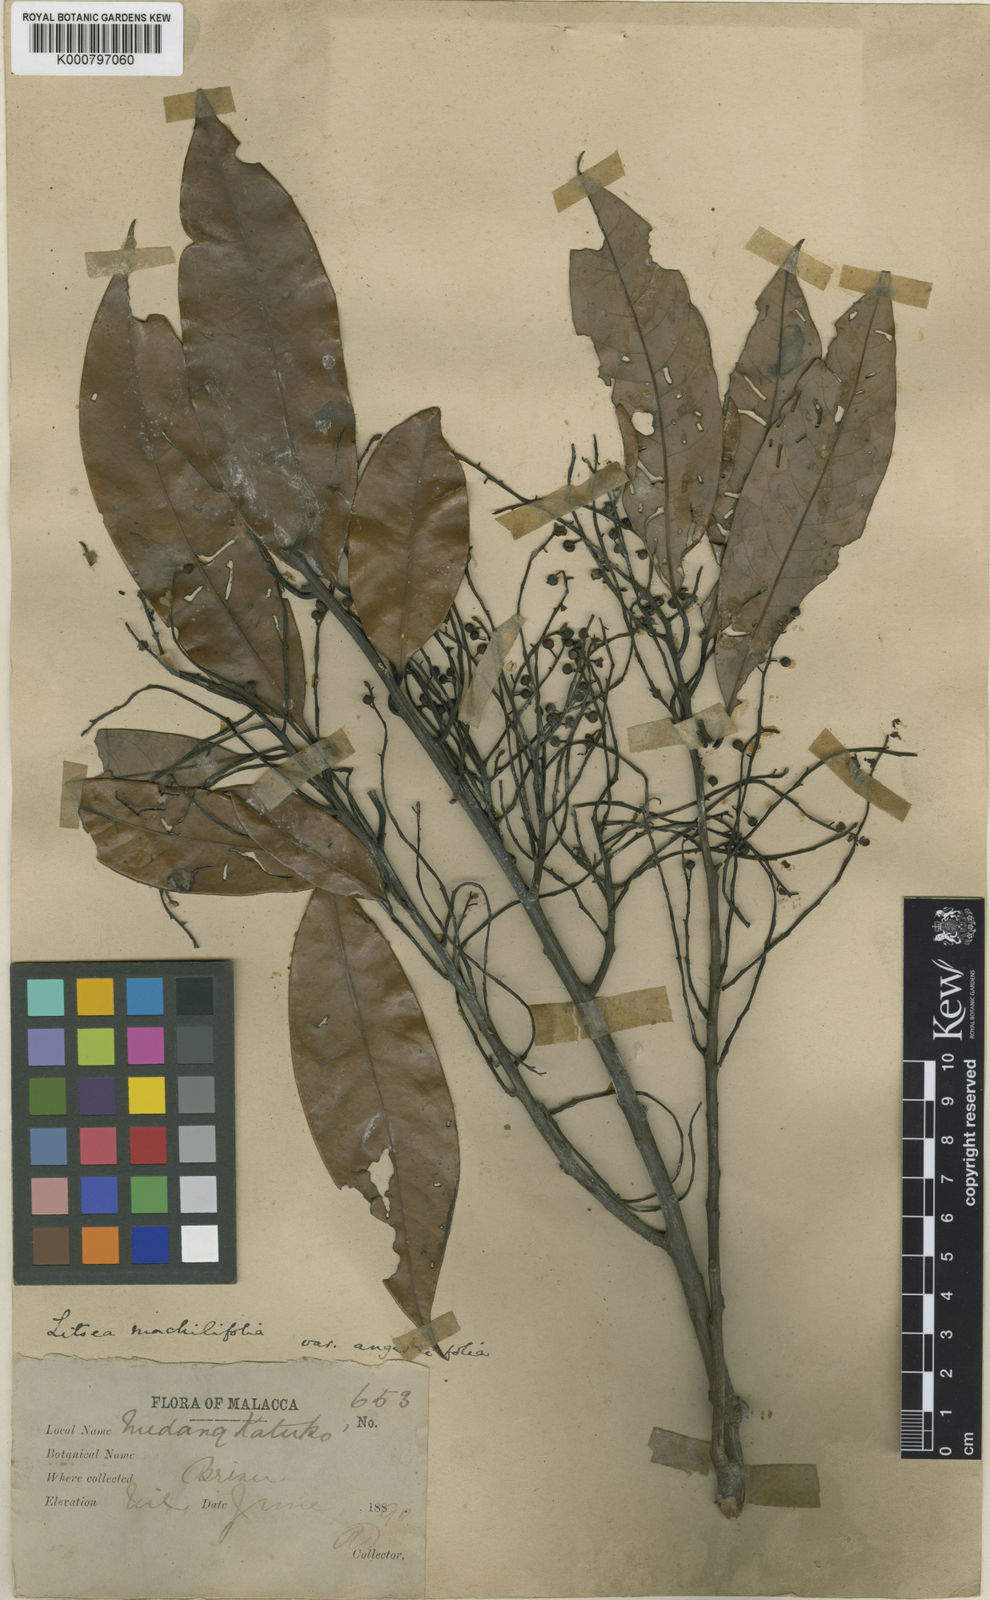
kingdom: Plantae
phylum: Tracheophyta
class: Magnoliopsida
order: Laurales
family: Lauraceae
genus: Litsea
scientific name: Litsea machilifolia
